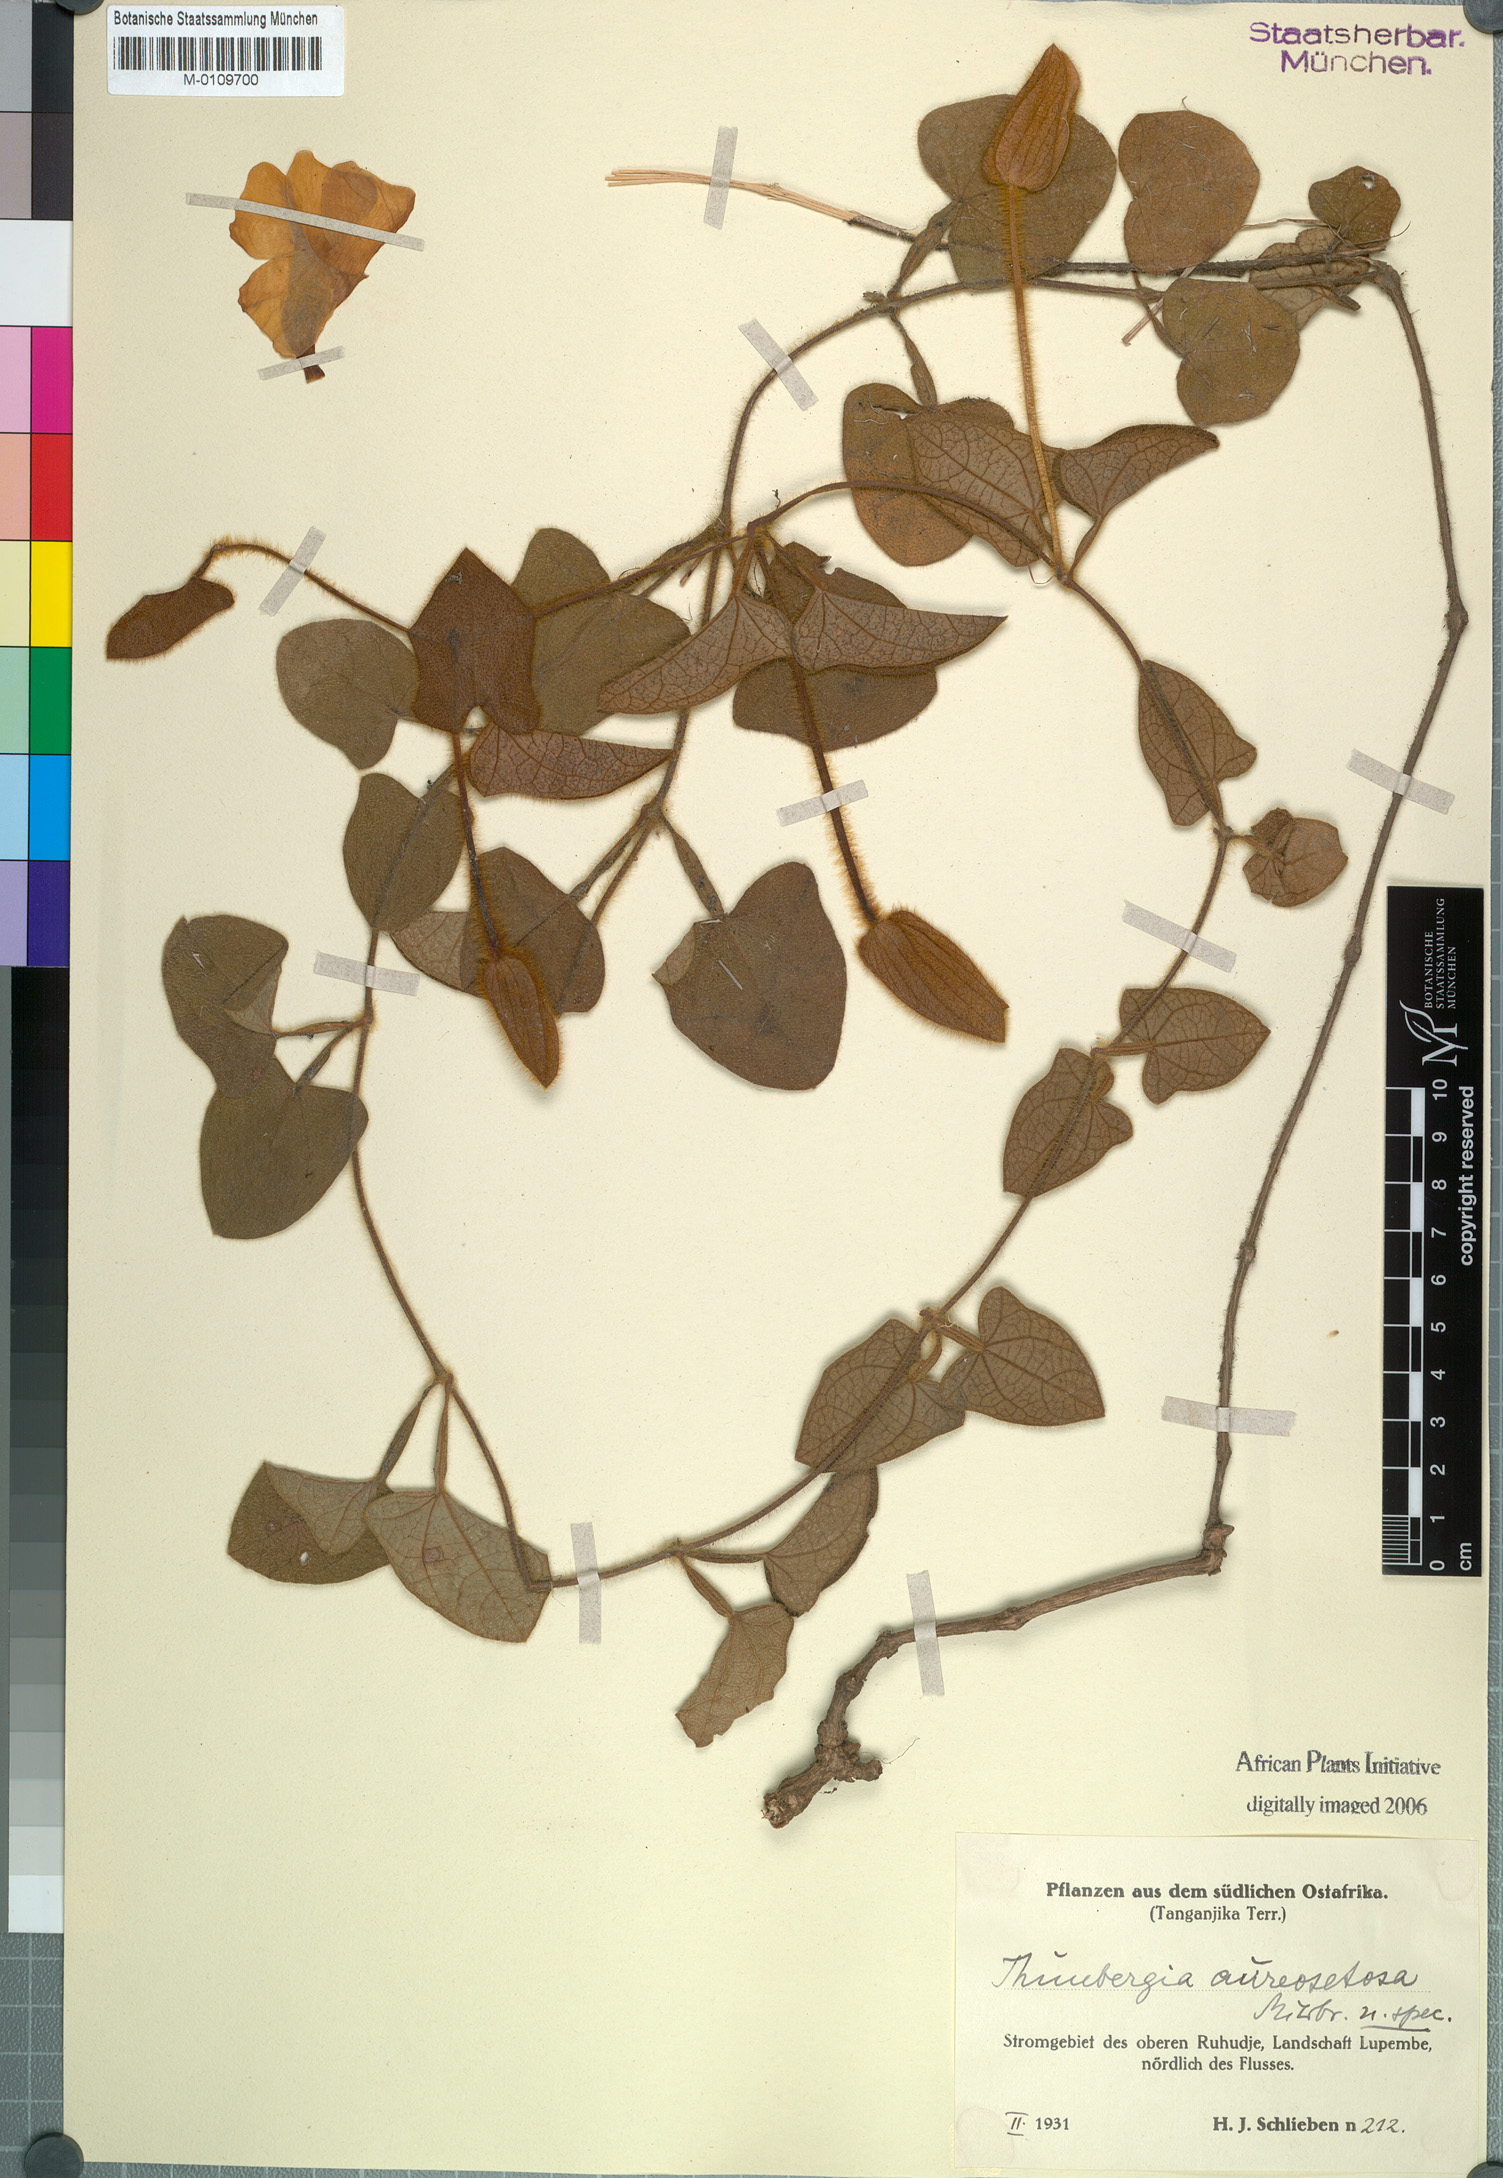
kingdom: Plantae
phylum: Tracheophyta
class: Magnoliopsida
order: Lamiales
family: Acanthaceae
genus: Thunbergia
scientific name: Thunbergia gregorii
